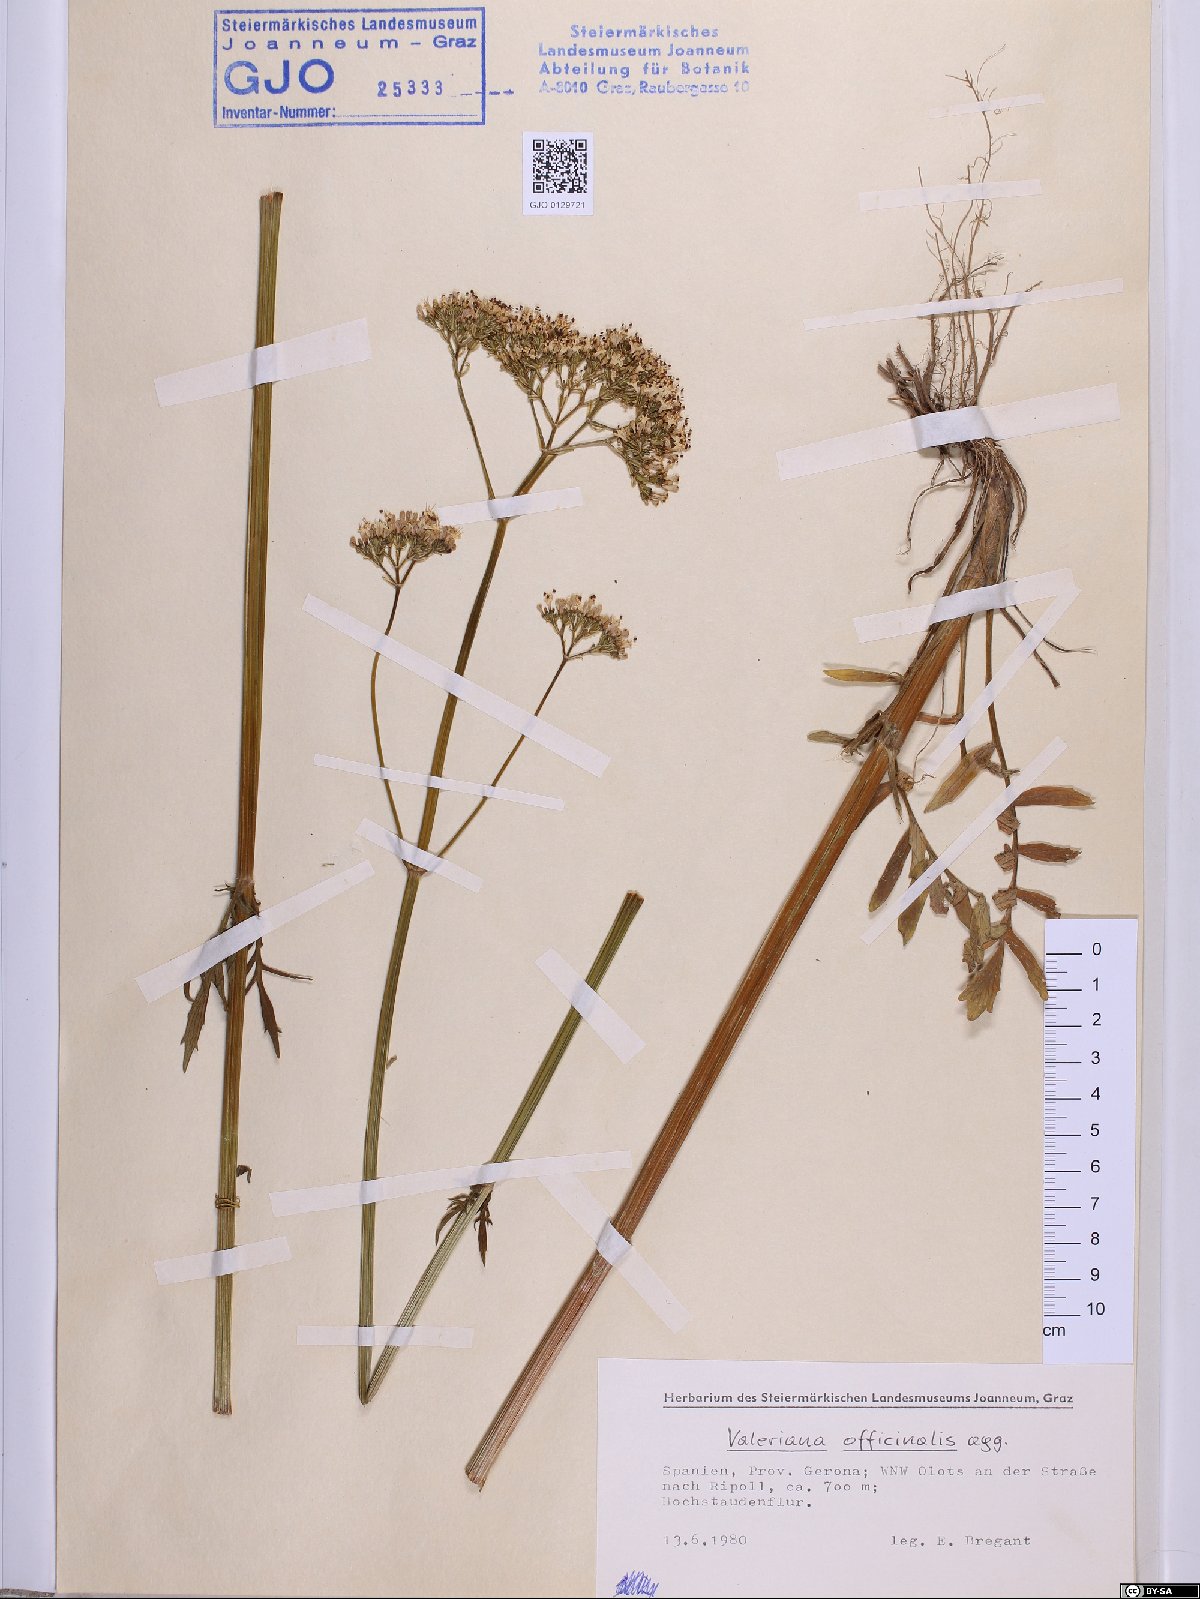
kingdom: Plantae
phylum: Tracheophyta
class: Magnoliopsida
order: Dipsacales
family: Caprifoliaceae
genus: Valeriana
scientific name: Valeriana officinalis
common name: Common valerian
